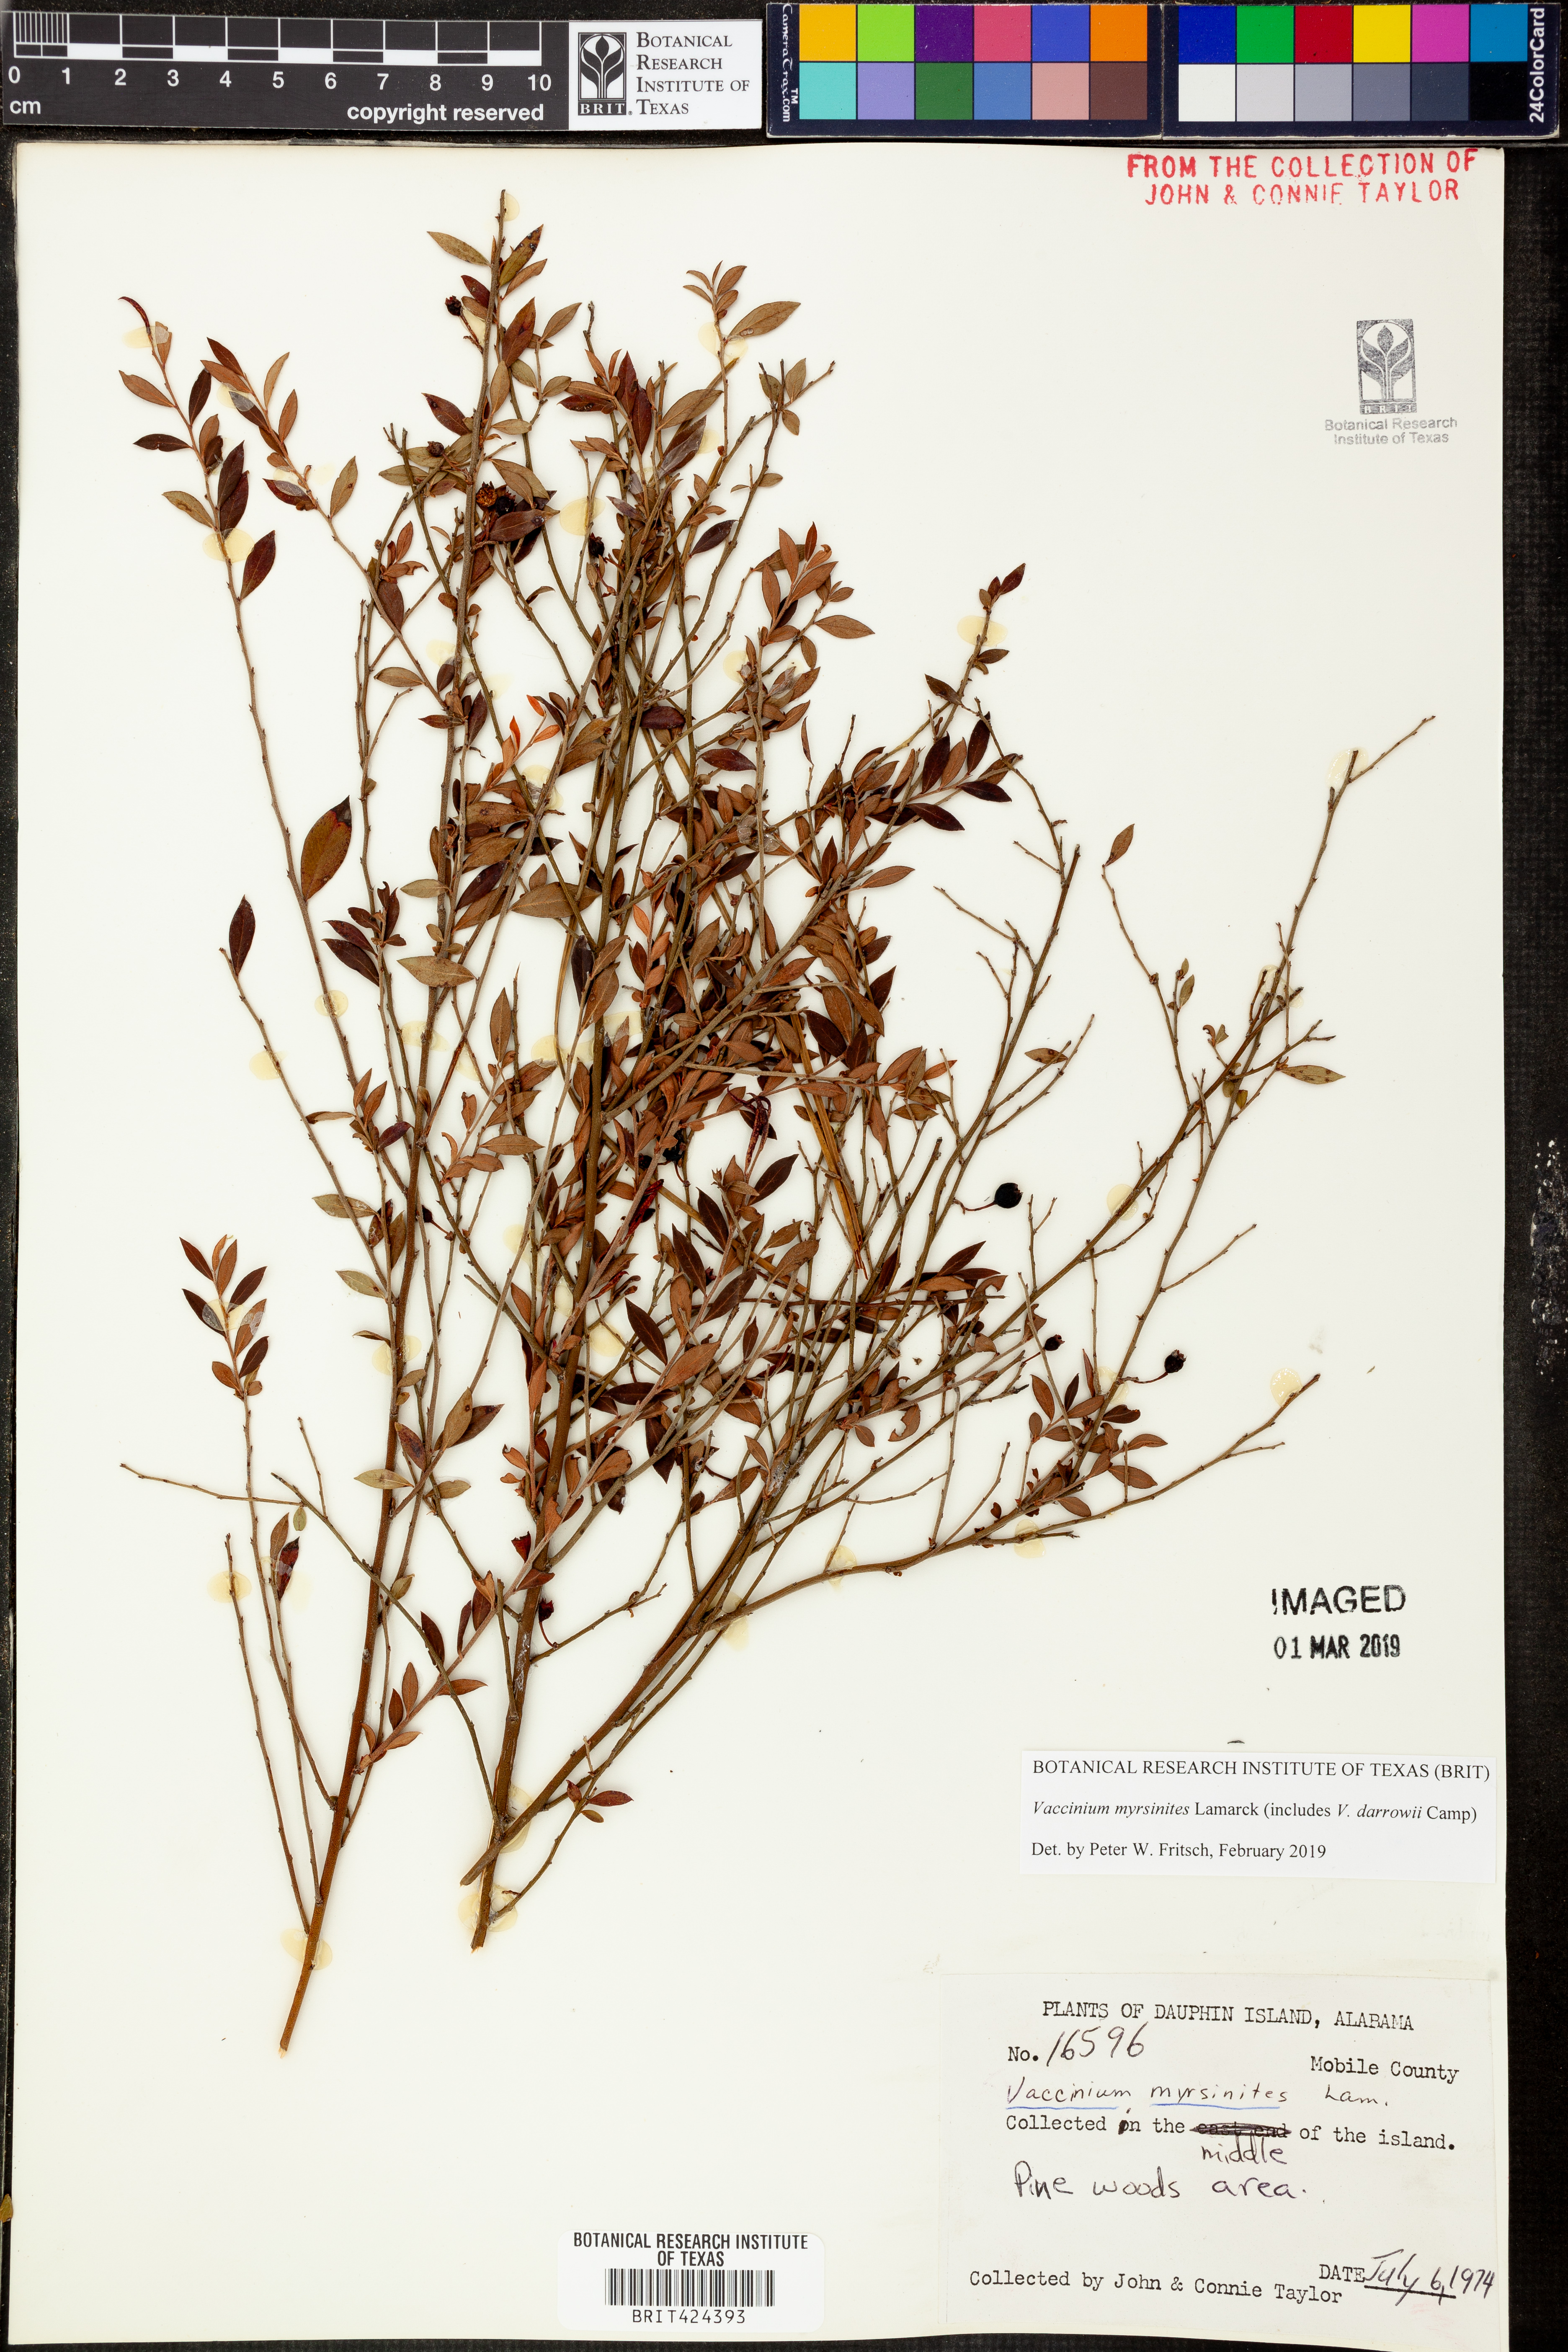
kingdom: Plantae
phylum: Tracheophyta
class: Magnoliopsida
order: Ericales
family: Ericaceae
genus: Vaccinium
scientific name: Vaccinium myrsinites
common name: Evergreen blueberry
